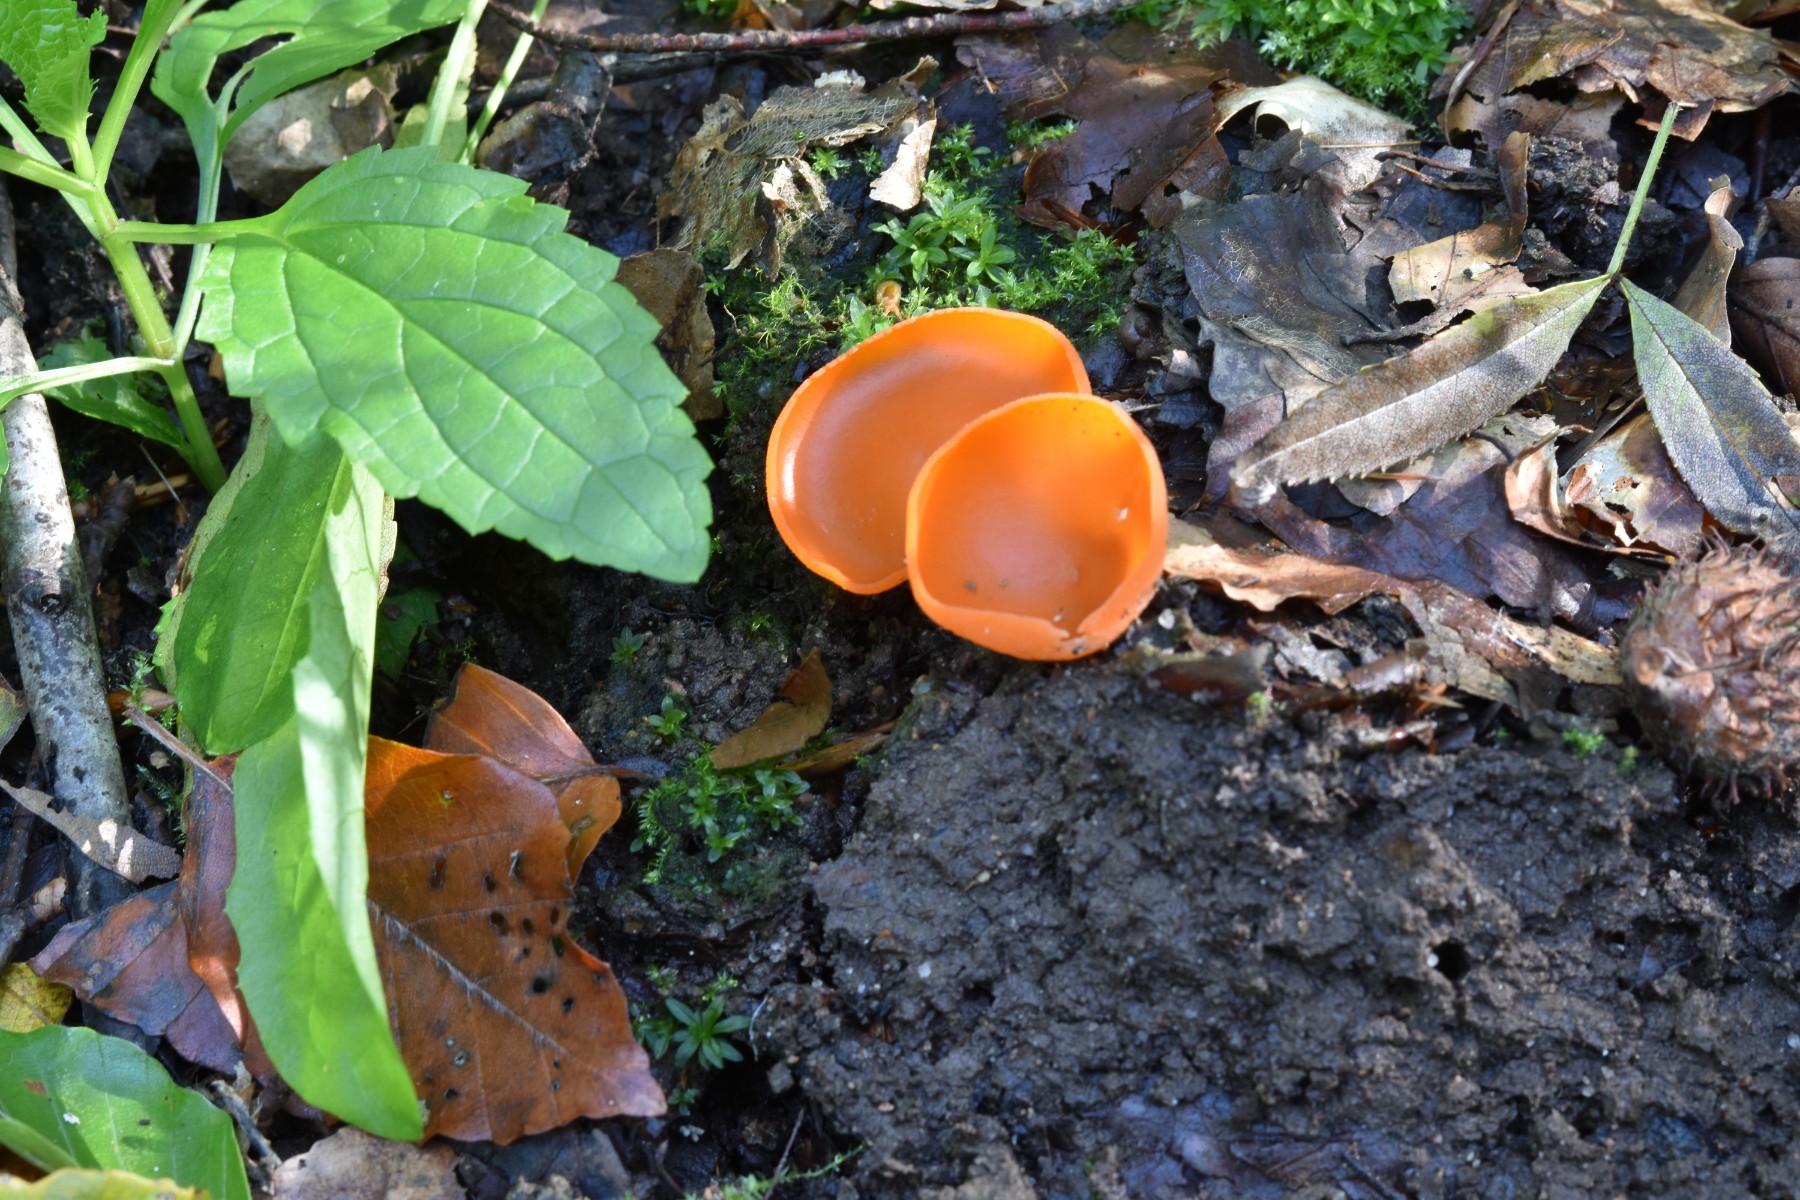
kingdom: Fungi
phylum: Ascomycota
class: Pezizomycetes
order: Pezizales
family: Pyronemataceae
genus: Aleuria
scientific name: Aleuria aurantia
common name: almindelig orangebæger
